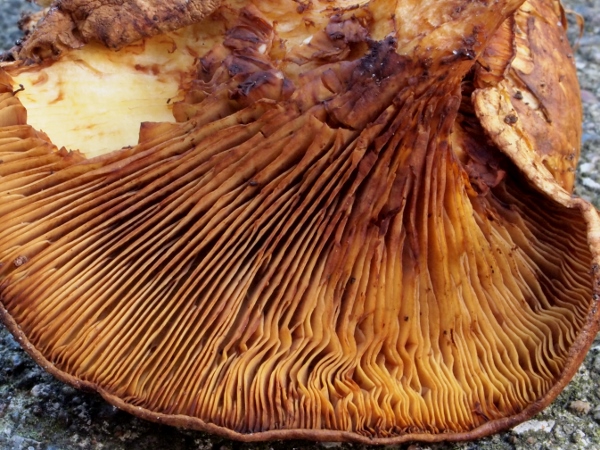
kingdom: Fungi
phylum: Basidiomycota
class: Agaricomycetes
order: Boletales
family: Paxillaceae
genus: Paxillus
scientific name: Paxillus rubicundulus
